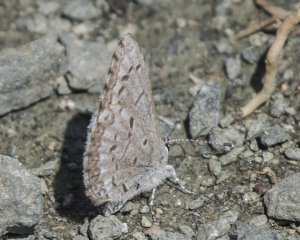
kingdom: Animalia
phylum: Arthropoda
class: Insecta
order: Lepidoptera
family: Lycaenidae
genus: Celastrina
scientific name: Celastrina lucia
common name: Northern Spring Azure
